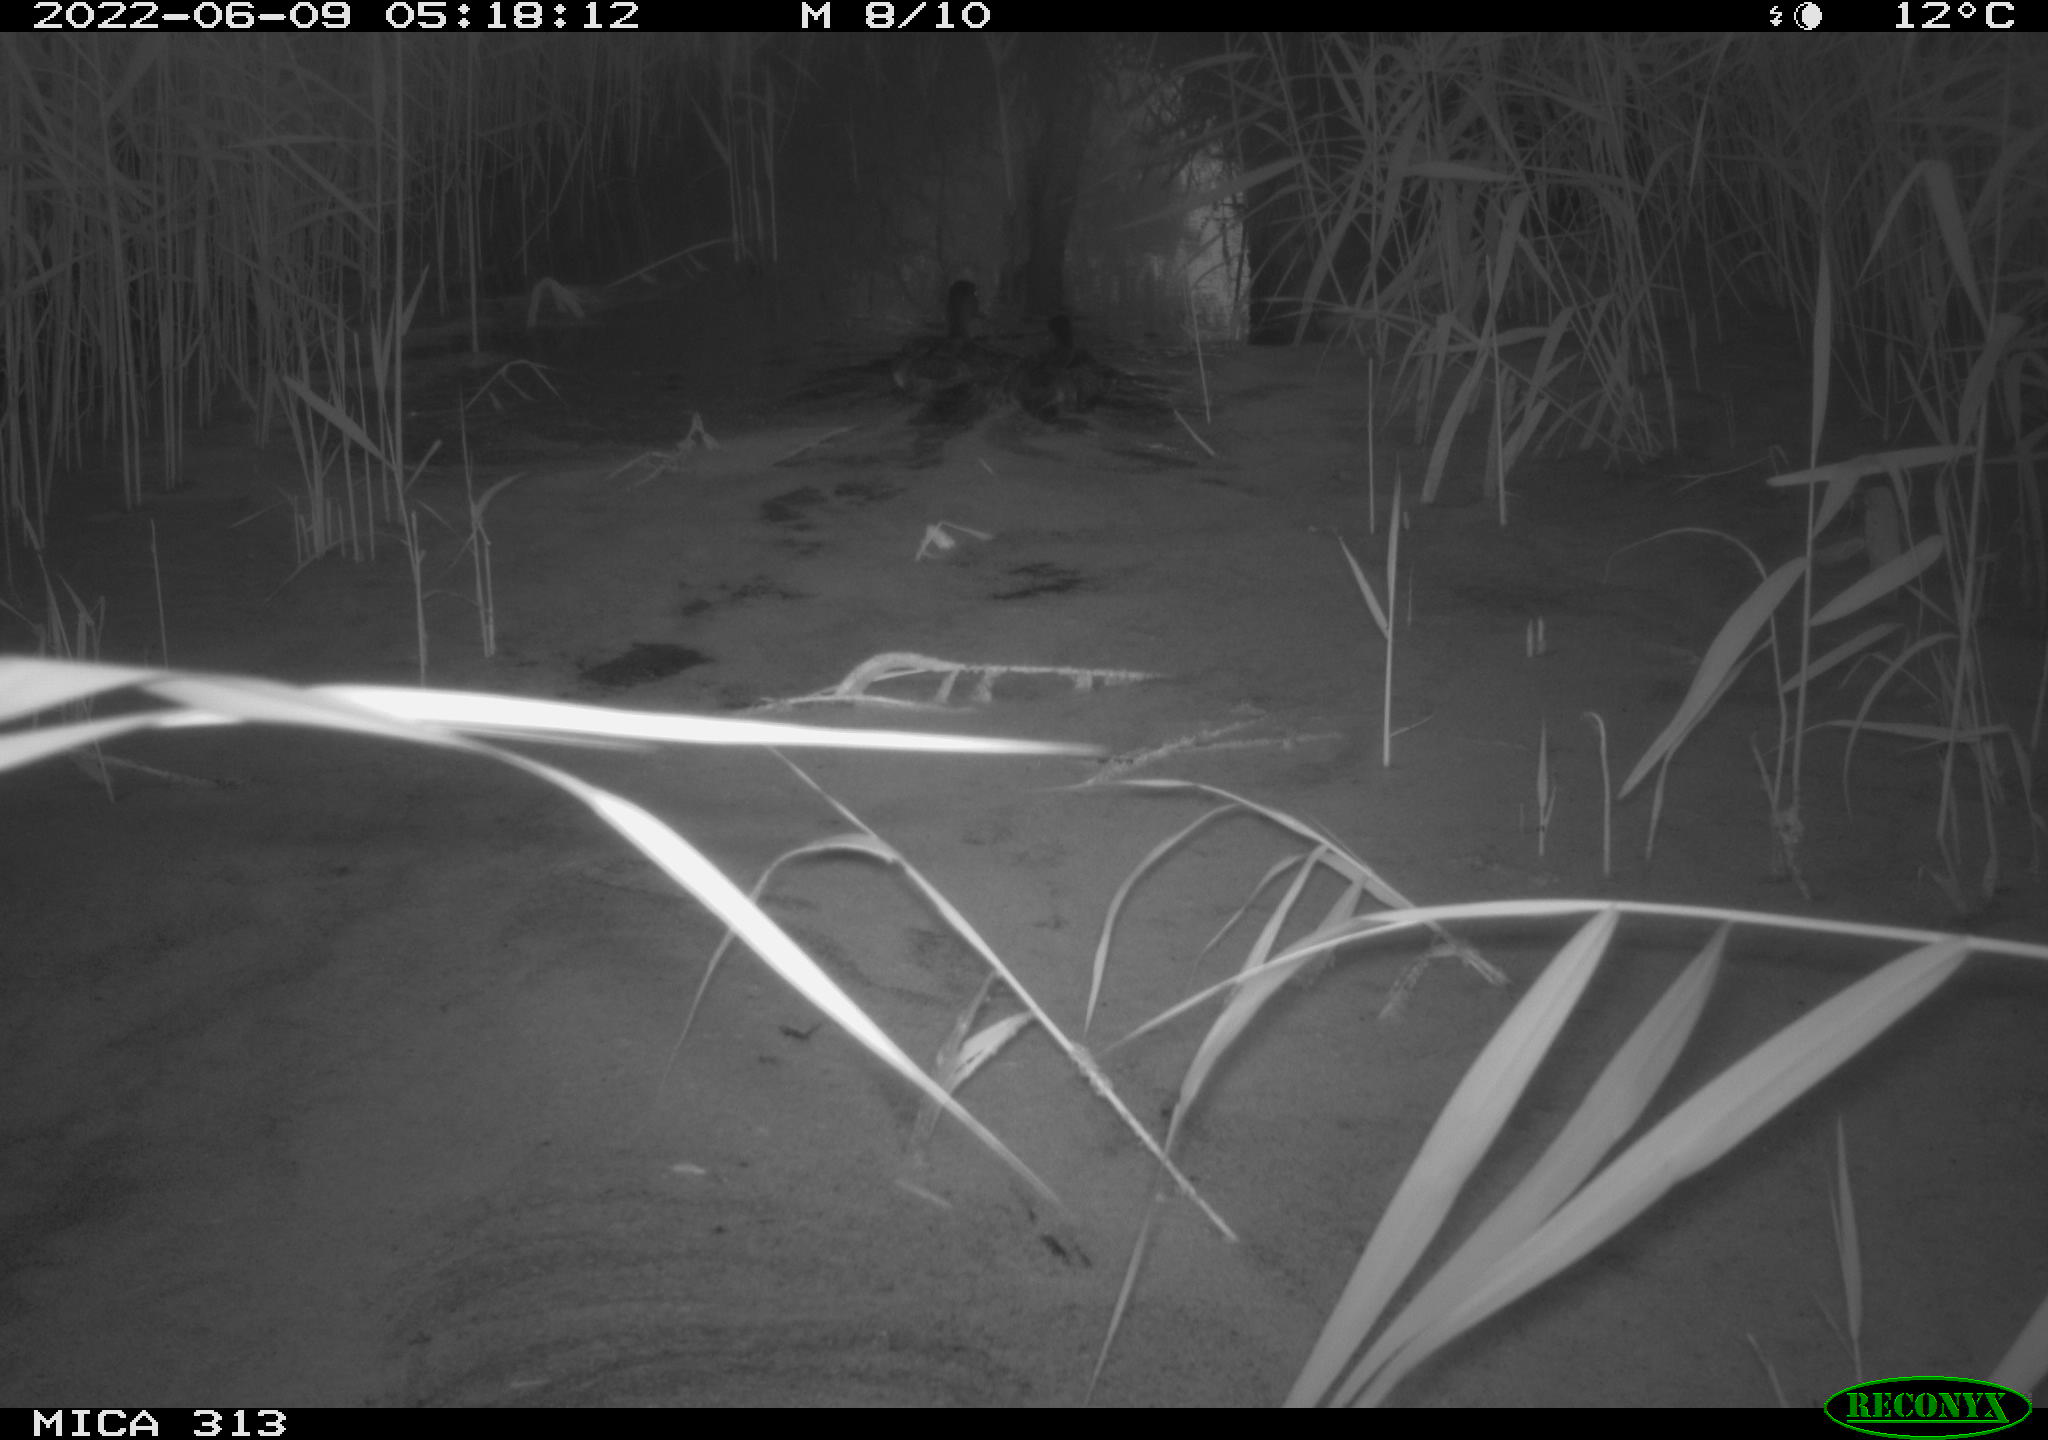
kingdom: Animalia
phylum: Chordata
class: Aves
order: Anseriformes
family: Anatidae
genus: Anas
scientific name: Anas platyrhynchos
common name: Mallard
